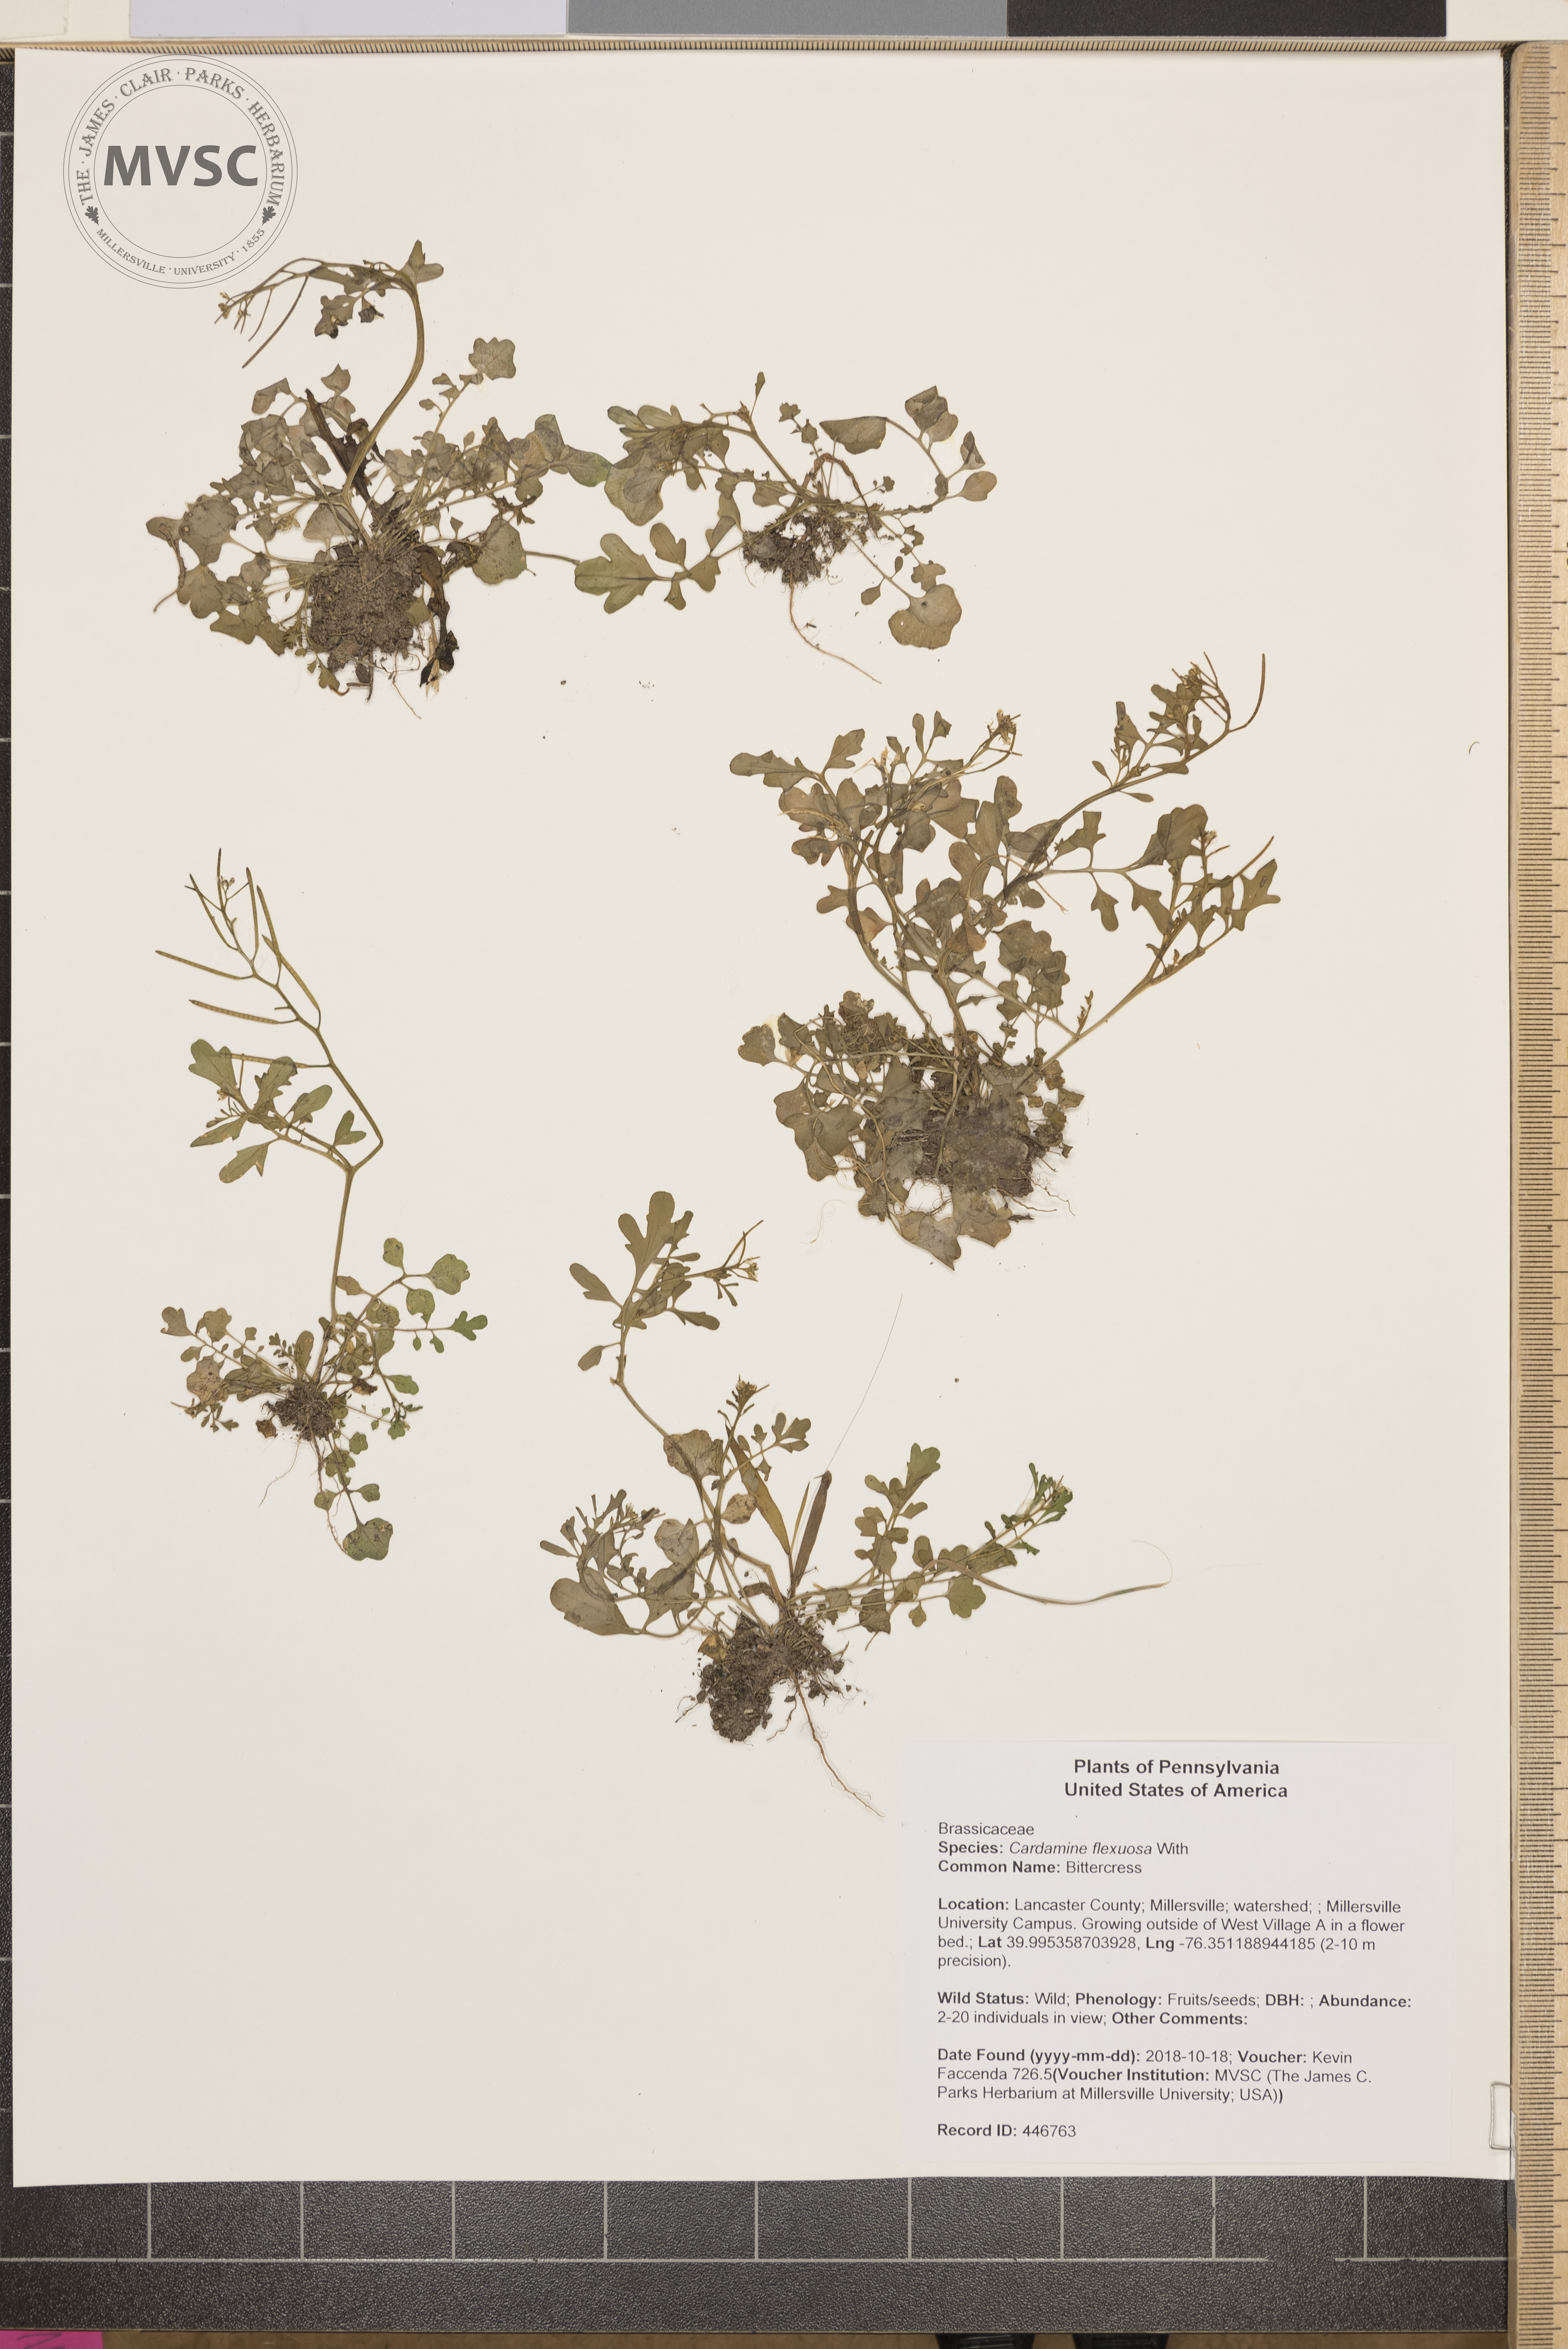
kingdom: Plantae
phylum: Tracheophyta
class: Magnoliopsida
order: Brassicales
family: Brassicaceae
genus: Cardamine
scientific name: Cardamine flexuosa
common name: Bittercress
